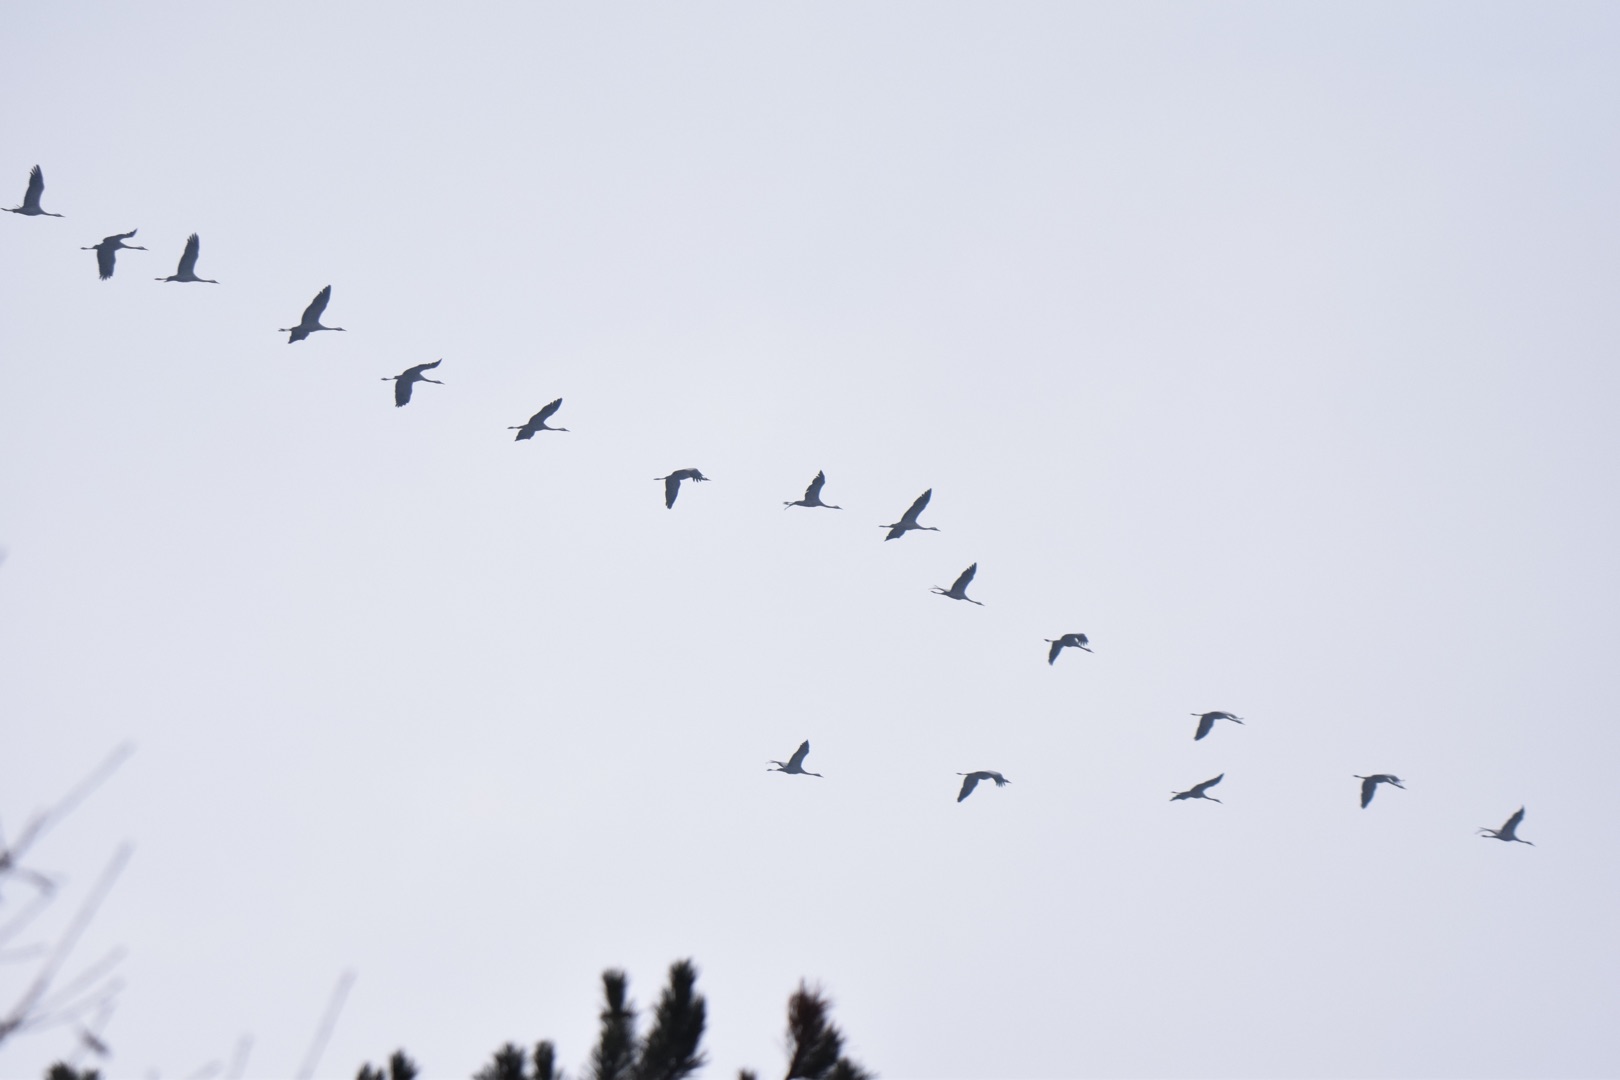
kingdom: Animalia
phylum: Chordata
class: Aves
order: Gruiformes
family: Gruidae
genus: Grus
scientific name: Grus grus
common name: Trane
